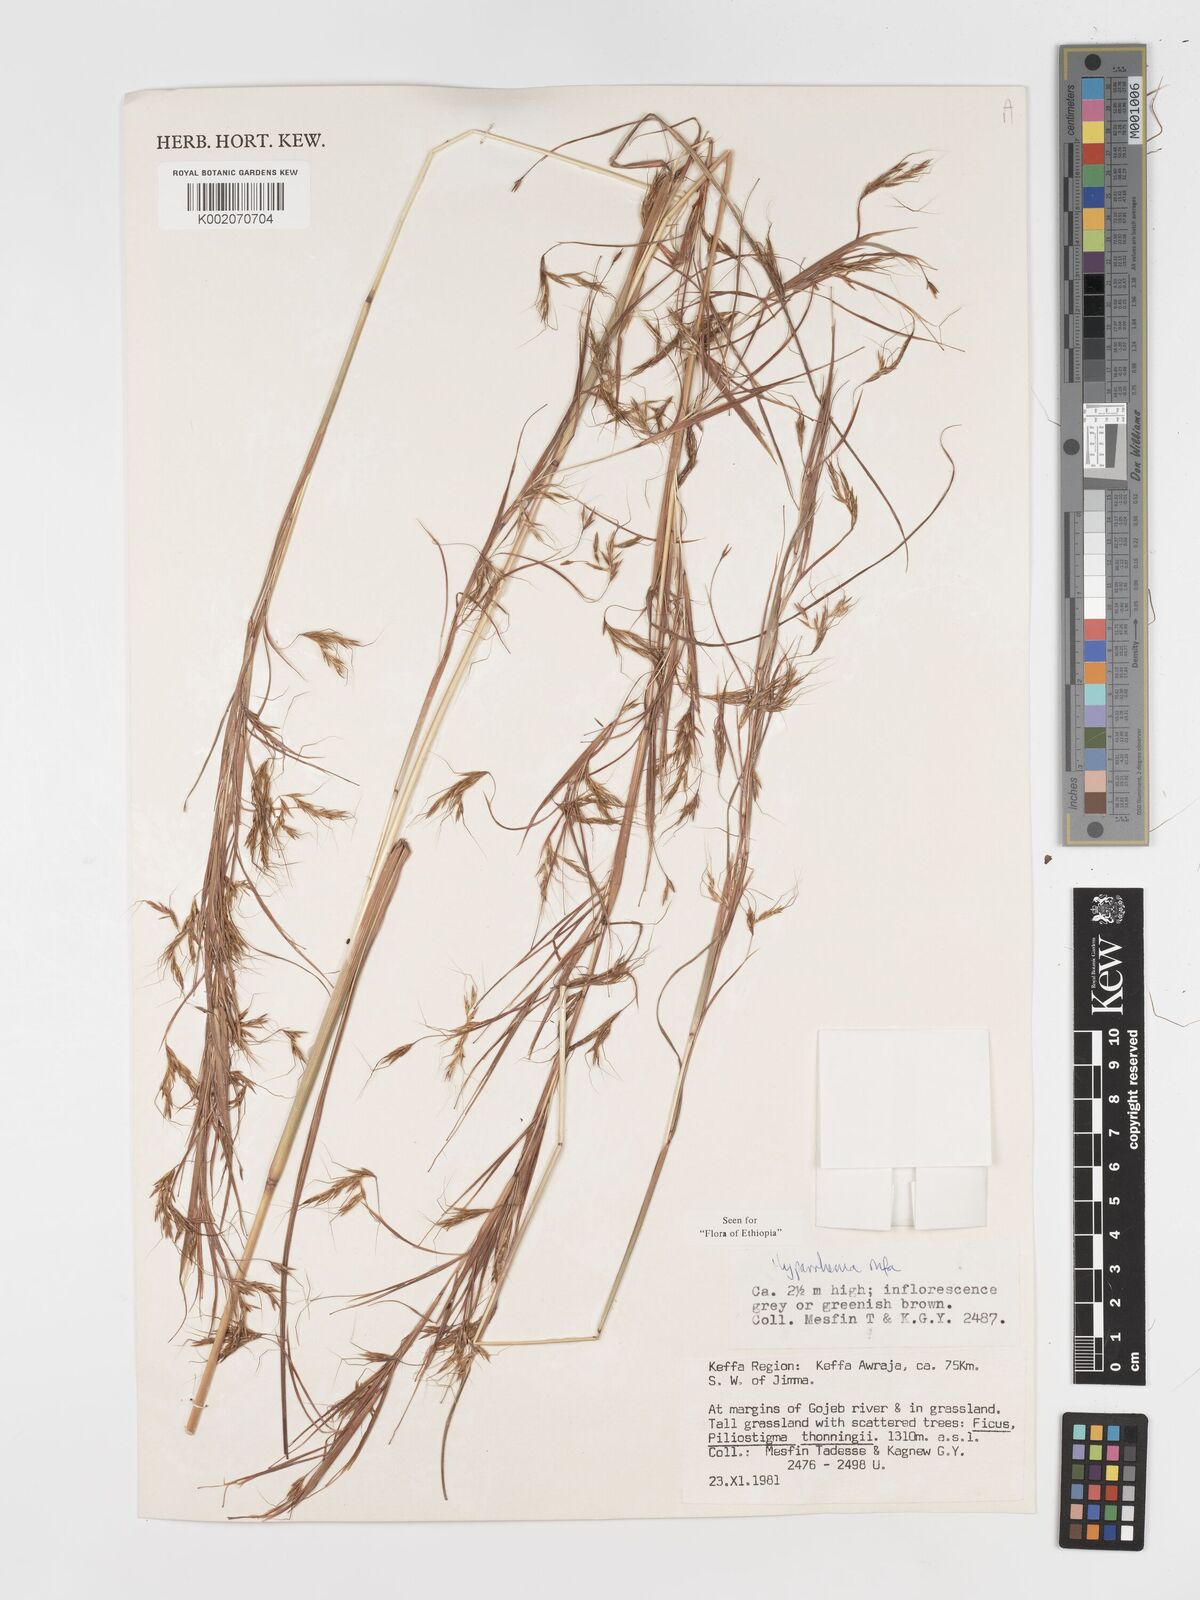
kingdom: Plantae
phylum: Tracheophyta
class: Liliopsida
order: Poales
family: Poaceae
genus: Hyparrhenia
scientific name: Hyparrhenia rufa
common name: Jaraguagrass
